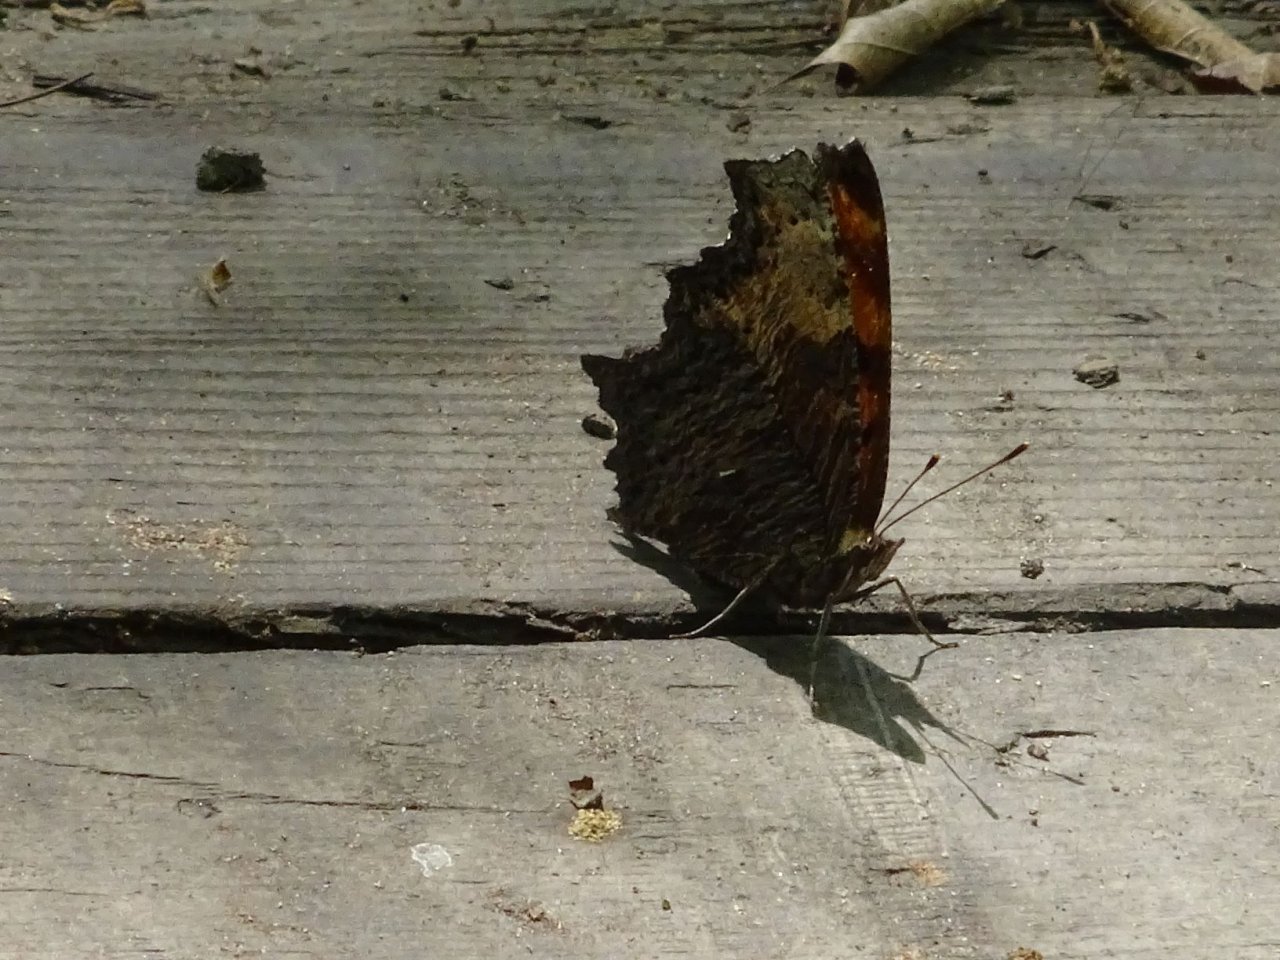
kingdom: Animalia
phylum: Arthropoda
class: Insecta
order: Lepidoptera
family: Nymphalidae
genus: Polygonia
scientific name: Polygonia progne
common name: Gray Comma
